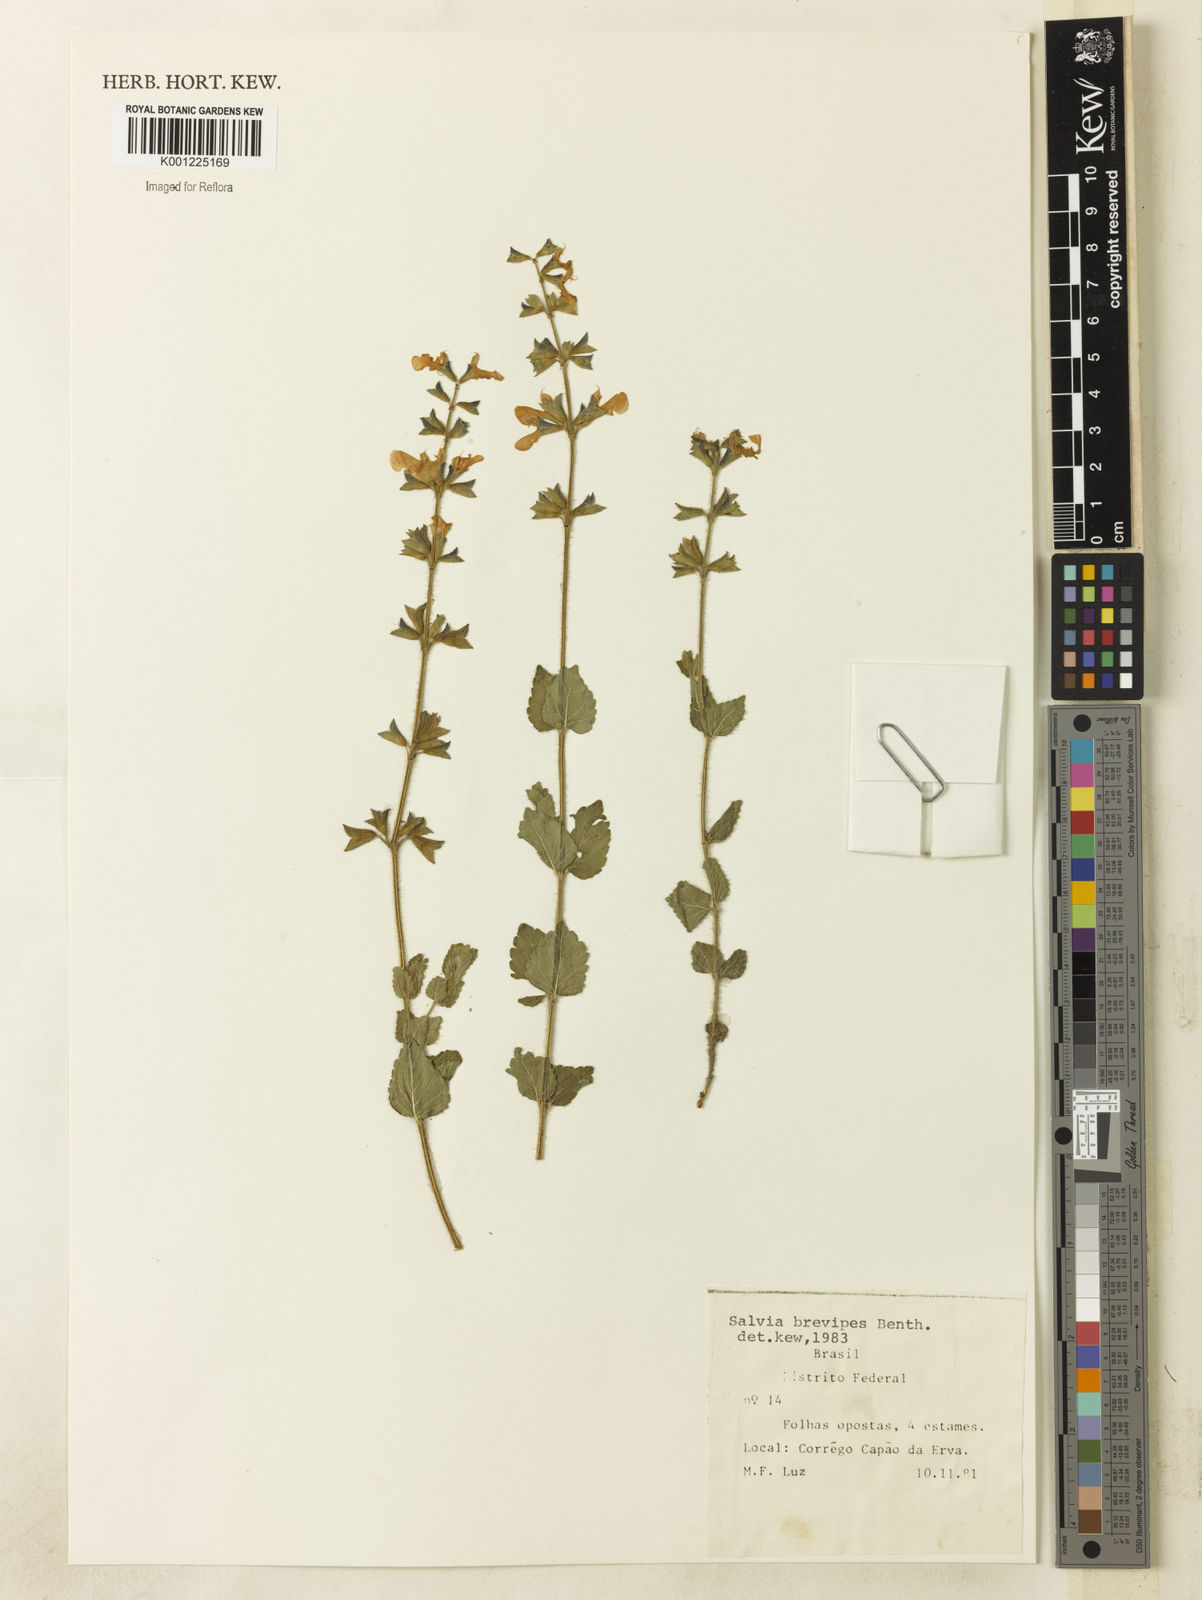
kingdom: Plantae
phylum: Tracheophyta
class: Magnoliopsida
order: Lamiales
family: Lamiaceae
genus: Salvia
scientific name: Salvia cerradicola
